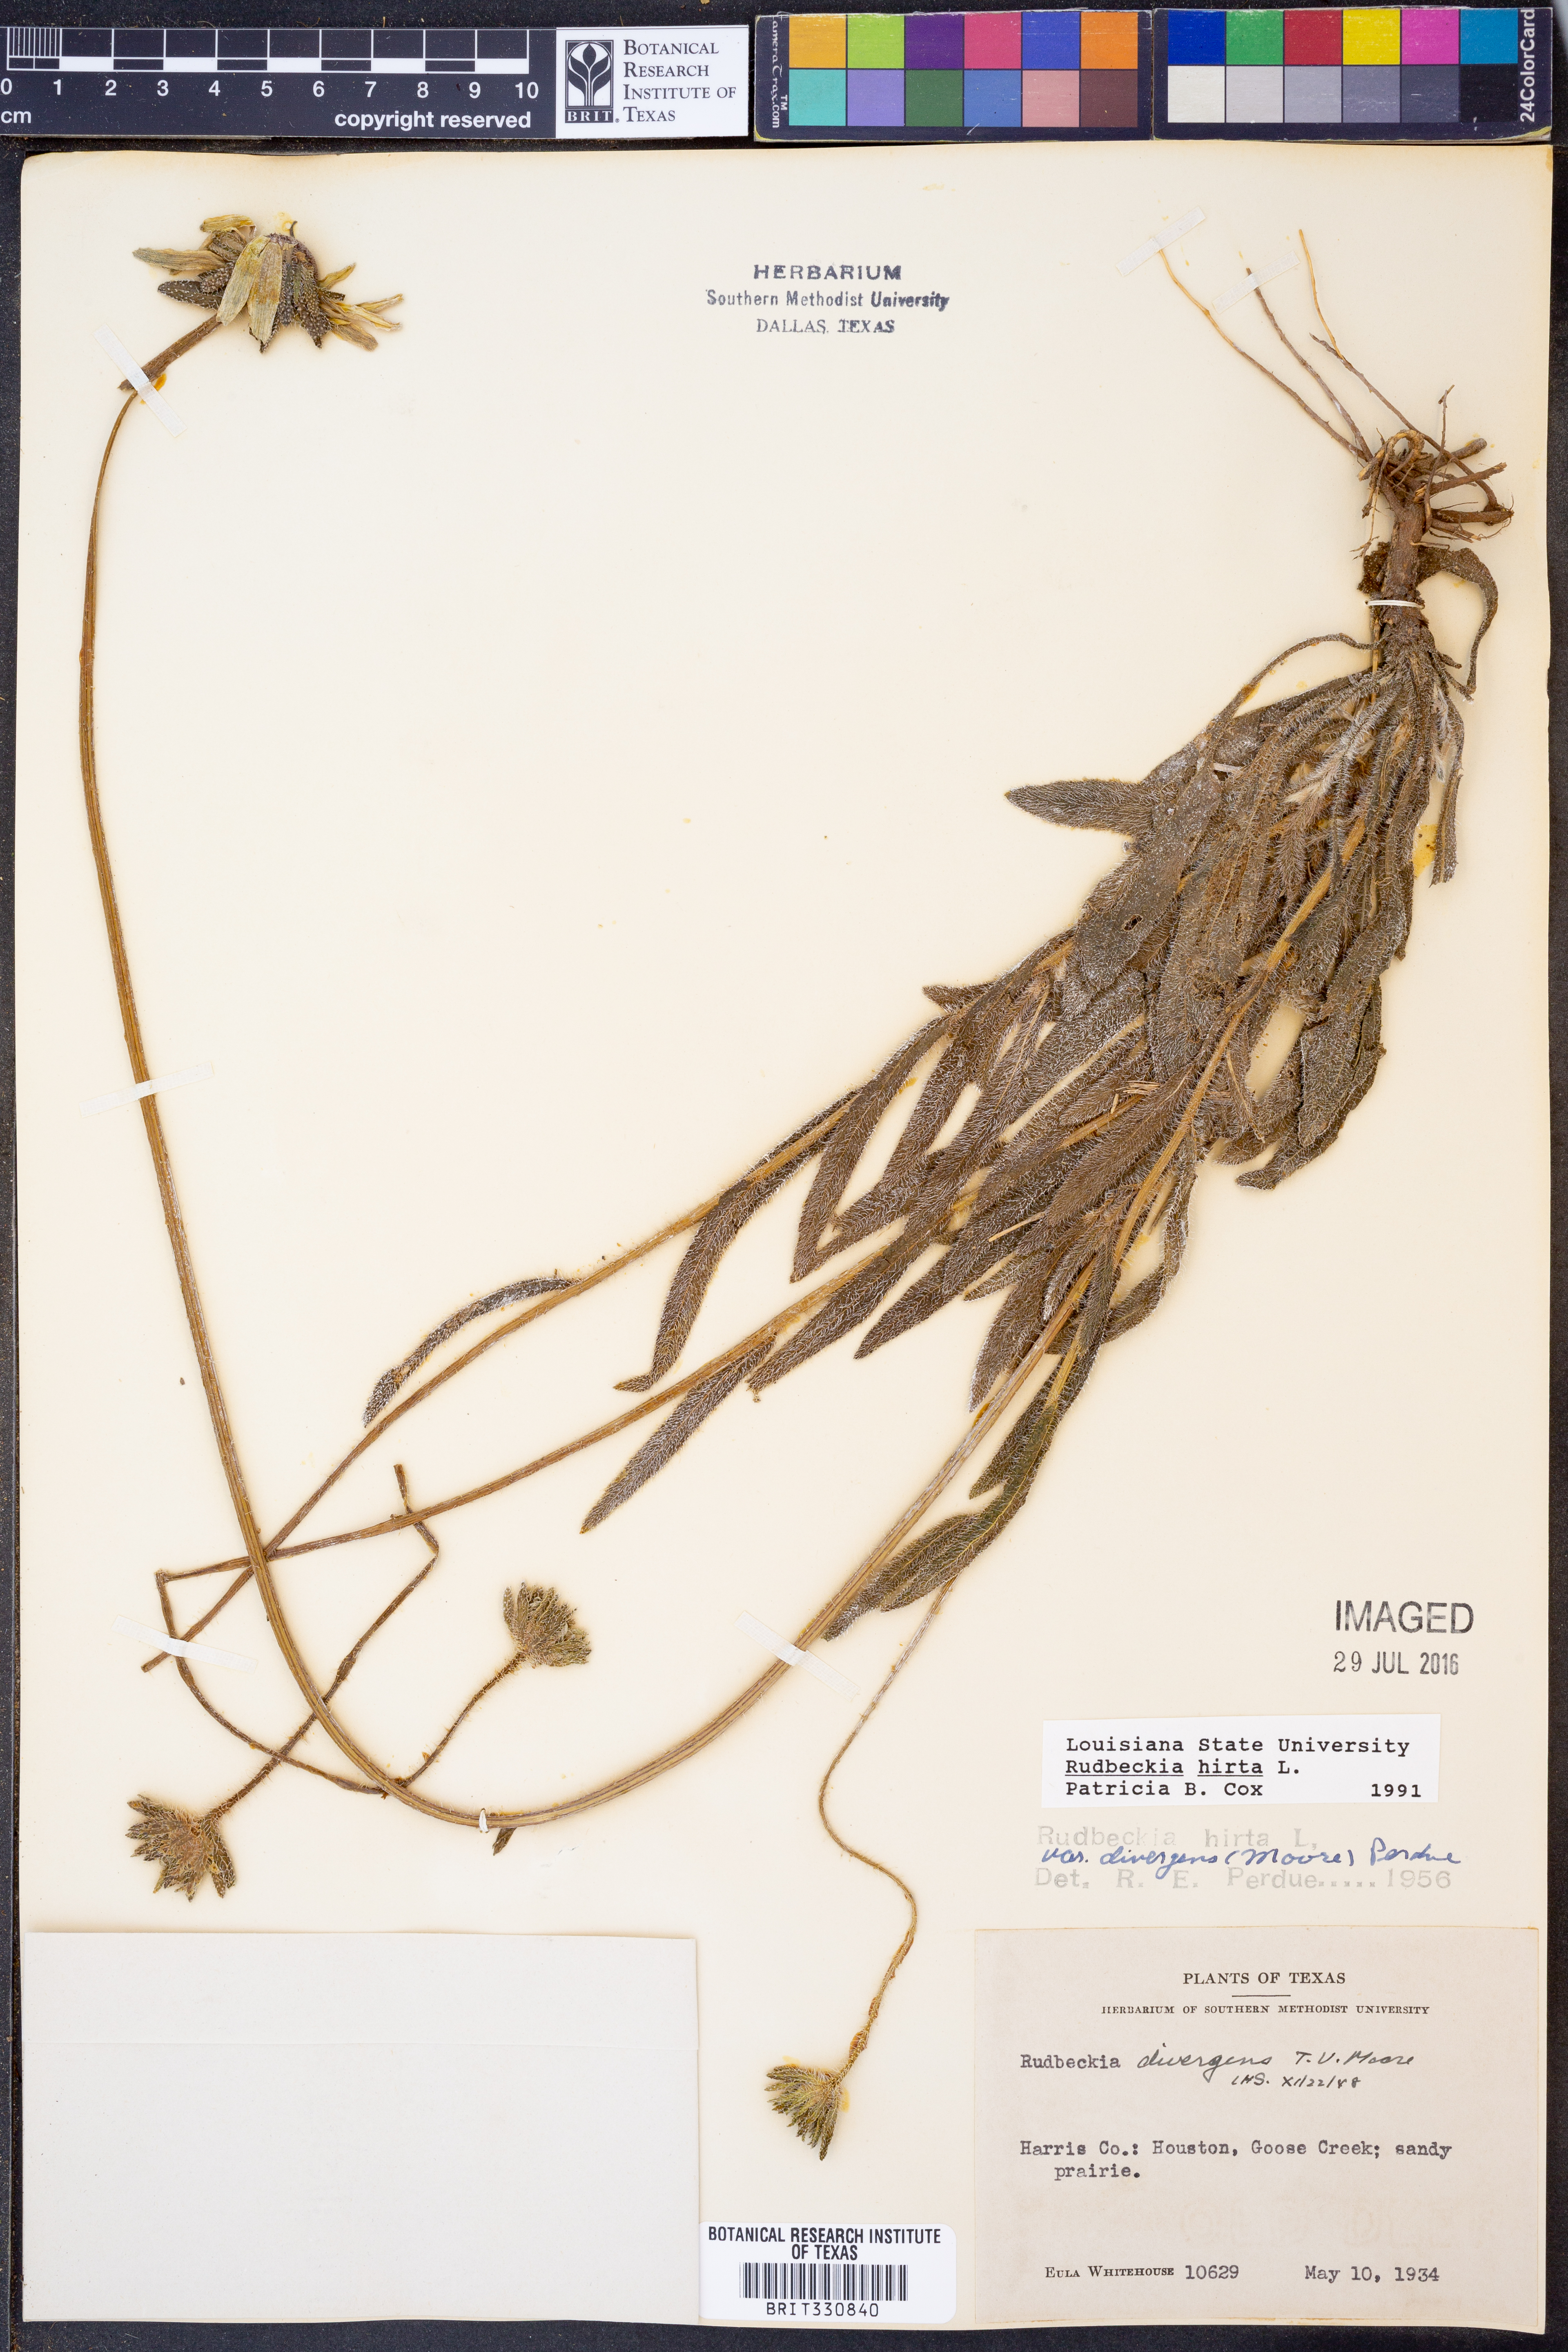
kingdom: Plantae
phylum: Tracheophyta
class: Magnoliopsida
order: Asterales
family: Asteraceae
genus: Rudbeckia
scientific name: Rudbeckia hirta
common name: Black-eyed-susan
